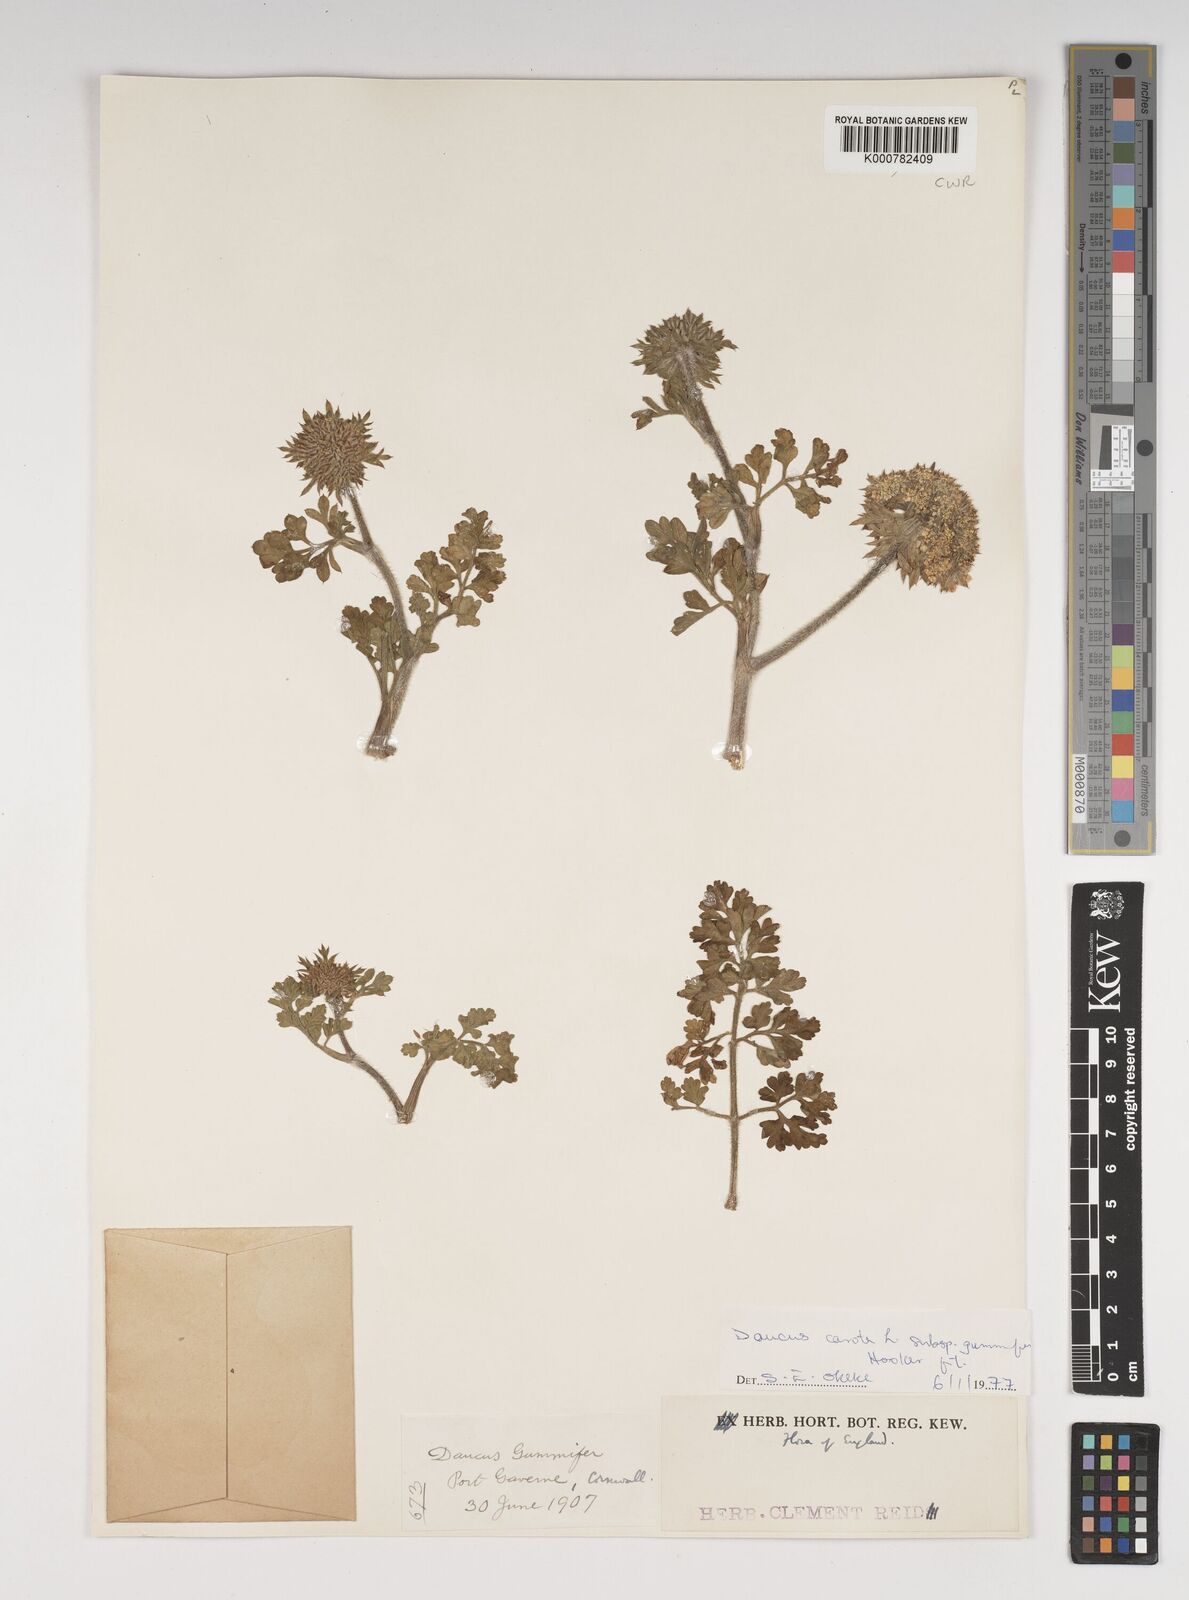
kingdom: Plantae
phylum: Tracheophyta
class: Magnoliopsida
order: Apiales
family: Apiaceae
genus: Daucus
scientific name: Daucus carota
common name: Wild carrot
